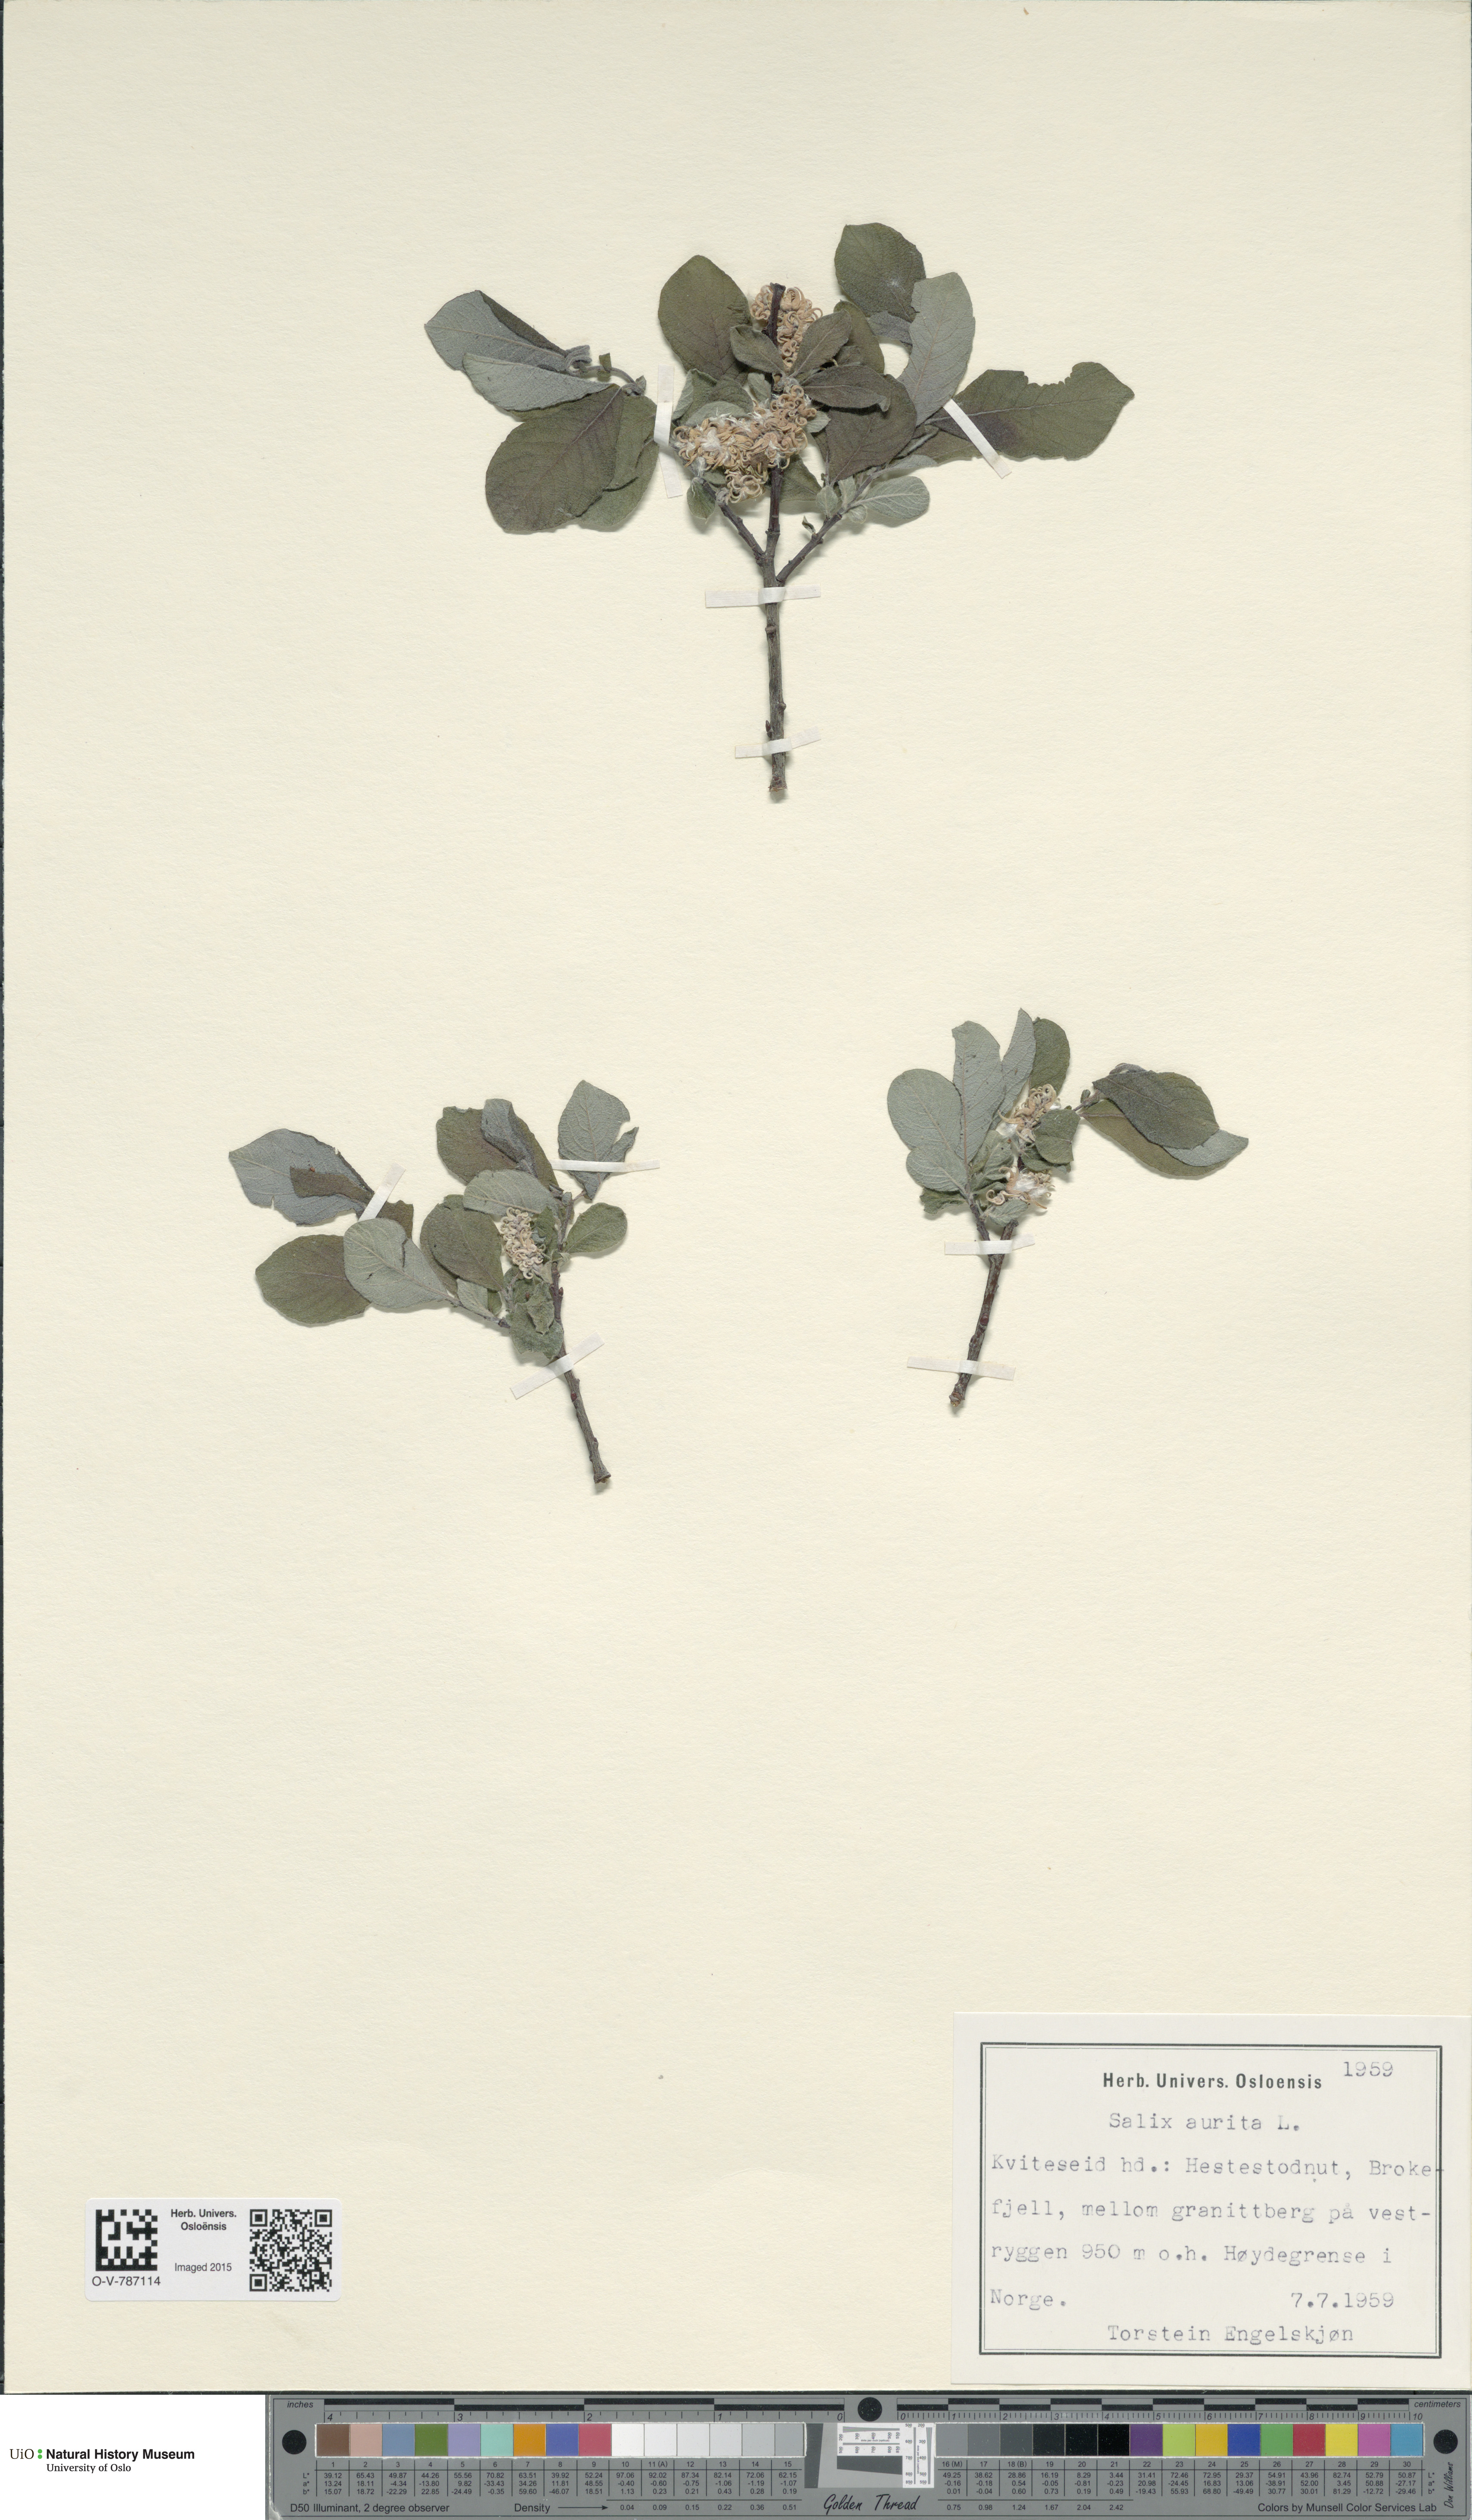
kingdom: Plantae
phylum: Tracheophyta
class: Magnoliopsida
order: Malpighiales
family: Salicaceae
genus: Salix
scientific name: Salix aurita
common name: Eared willow
